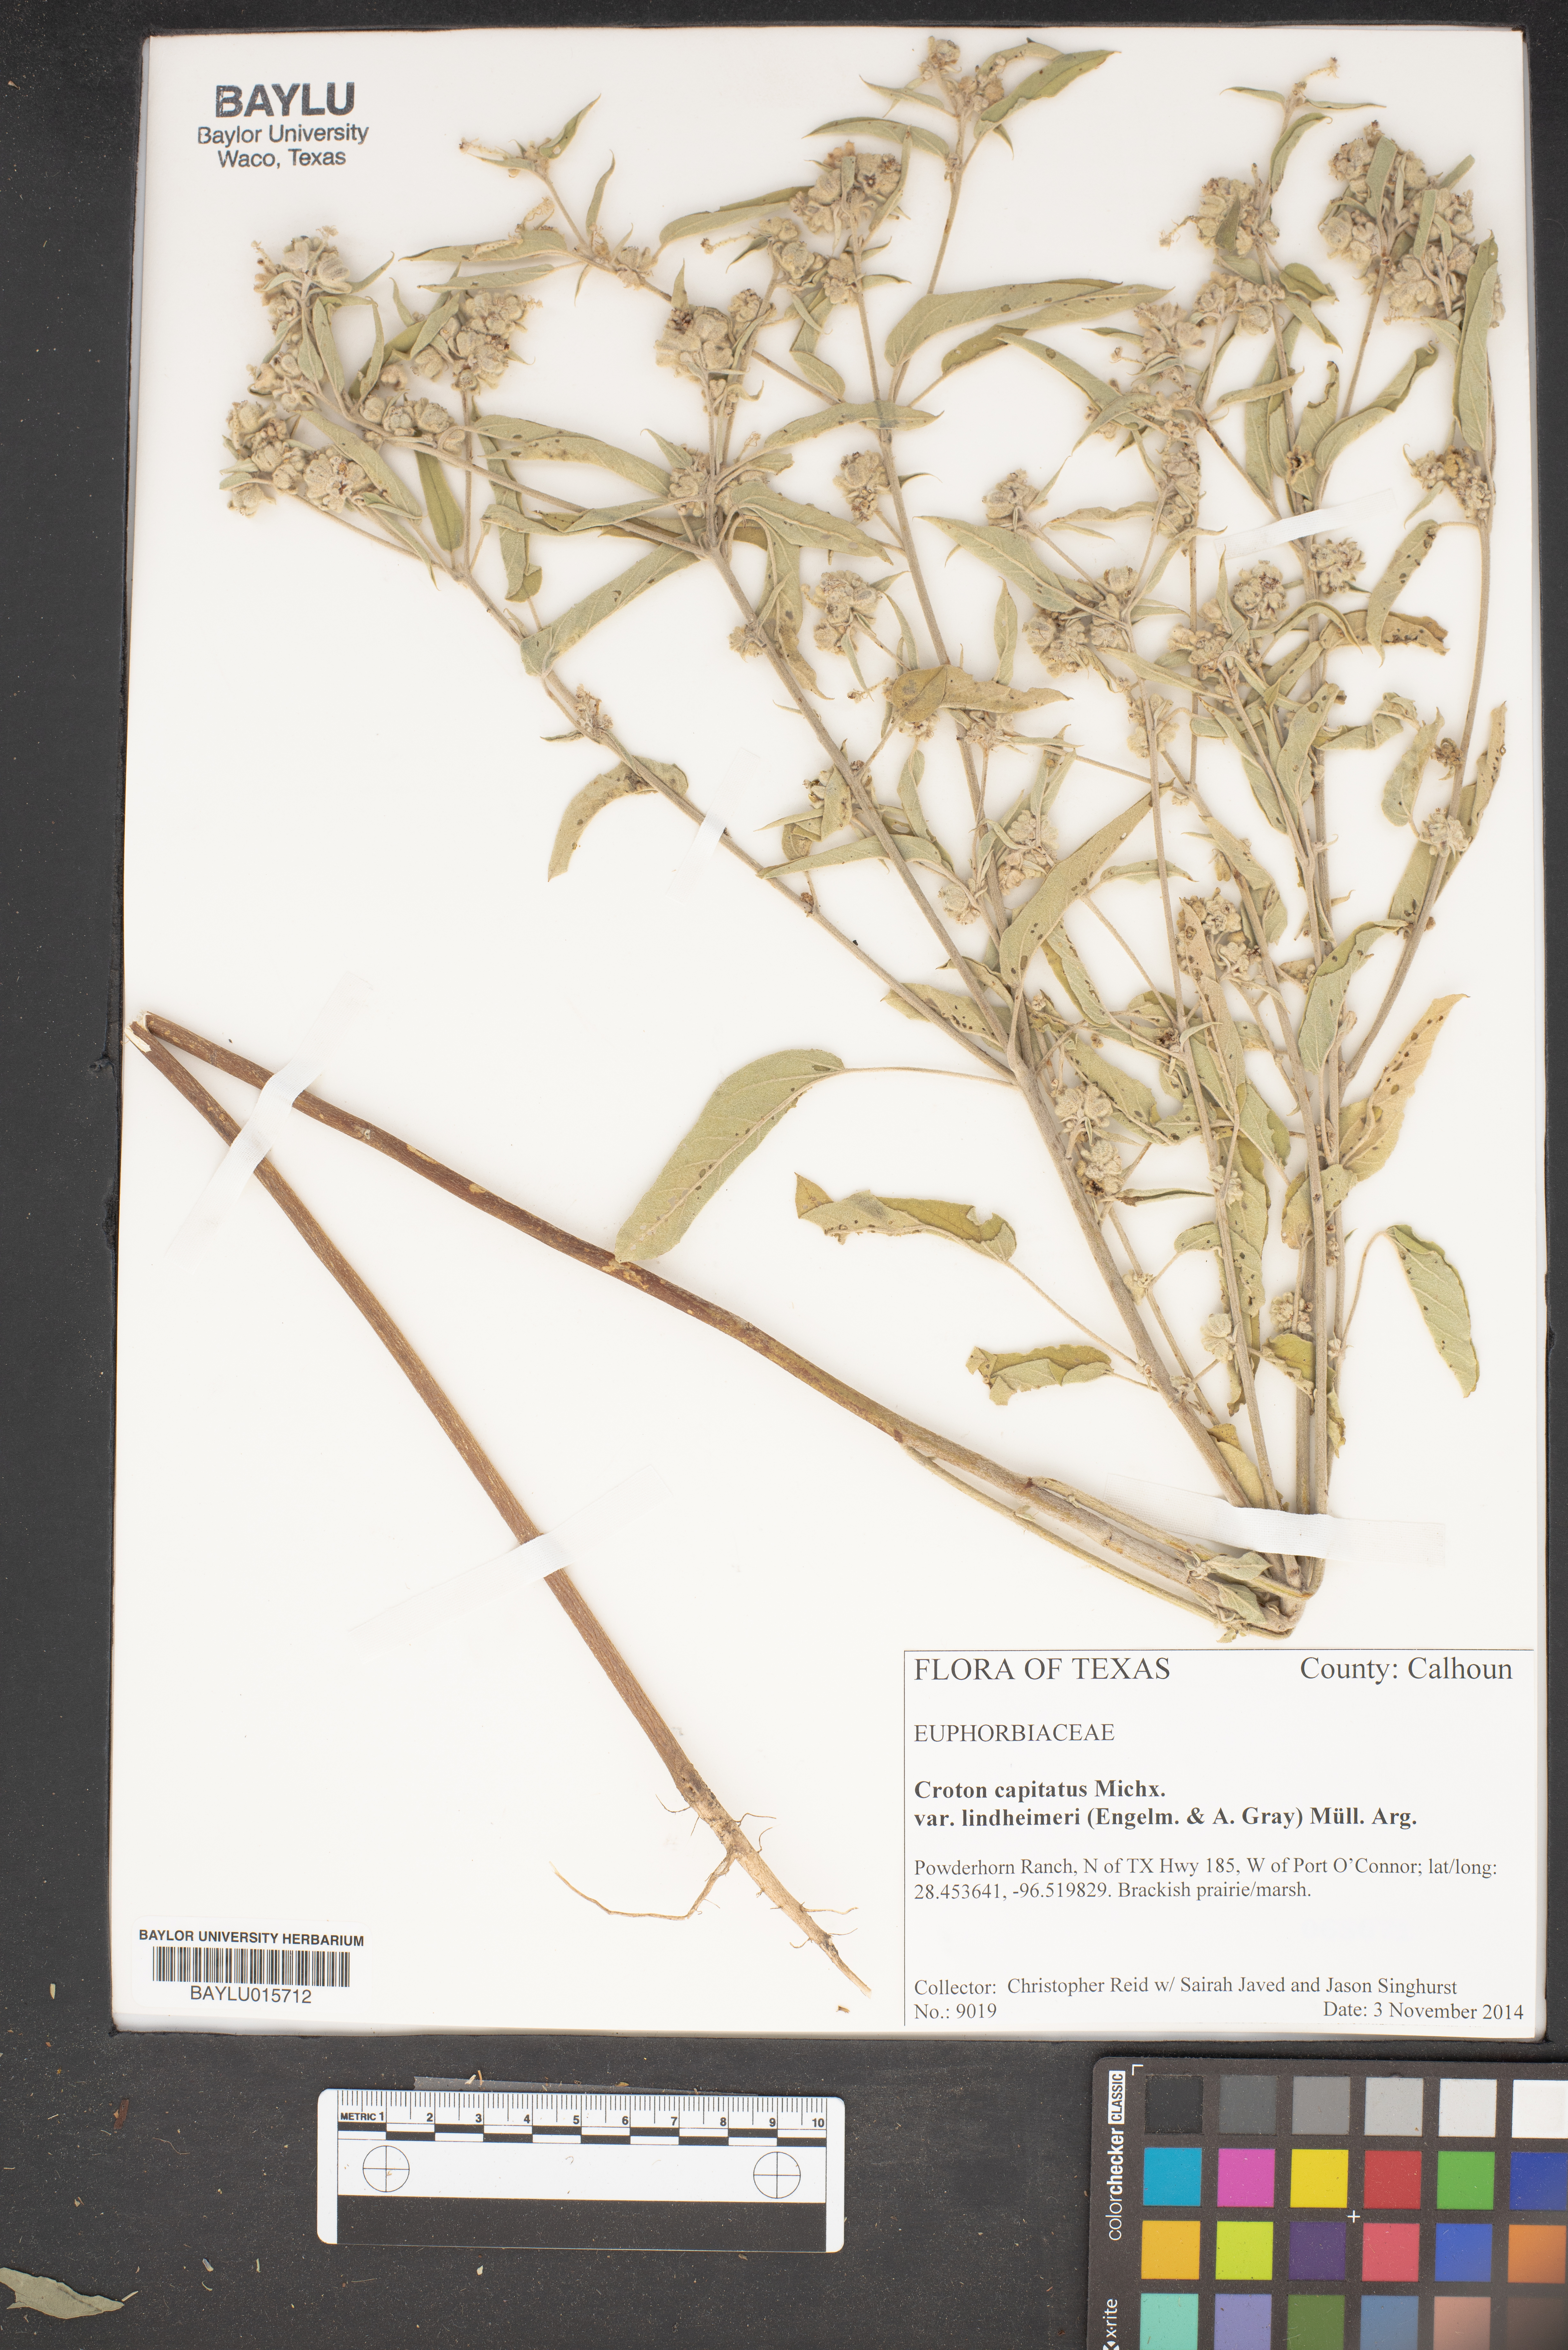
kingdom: Plantae
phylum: Tracheophyta
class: Magnoliopsida
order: Malpighiales
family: Euphorbiaceae
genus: Croton
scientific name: Croton lindheimeri
